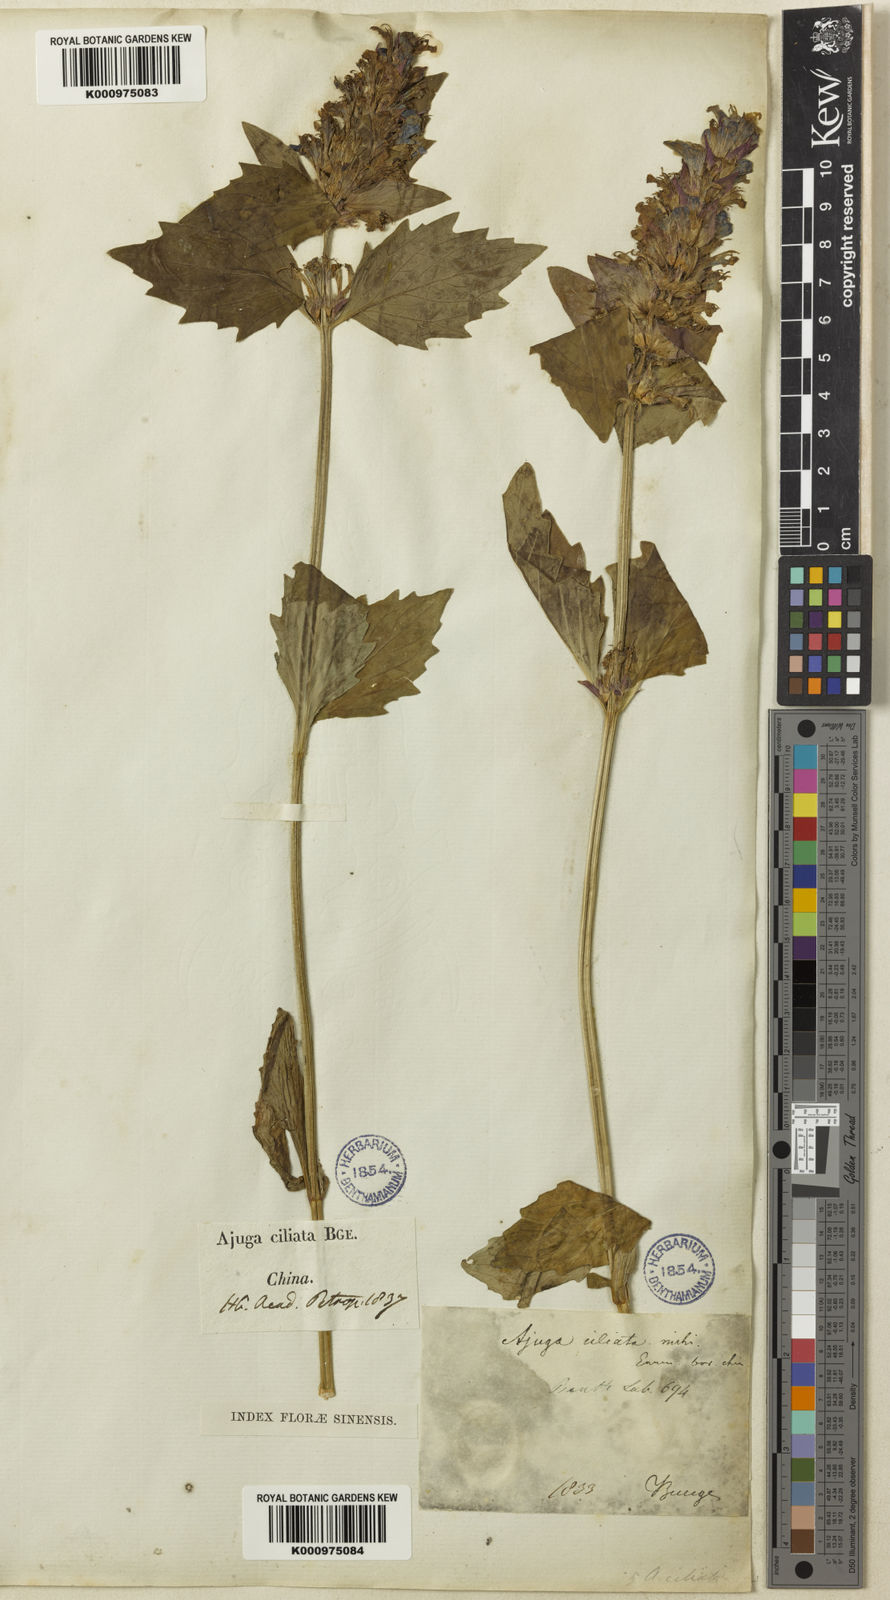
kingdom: Plantae
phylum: Tracheophyta
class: Magnoliopsida
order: Lamiales
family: Lamiaceae
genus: Ajuga
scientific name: Ajuga ciliata
